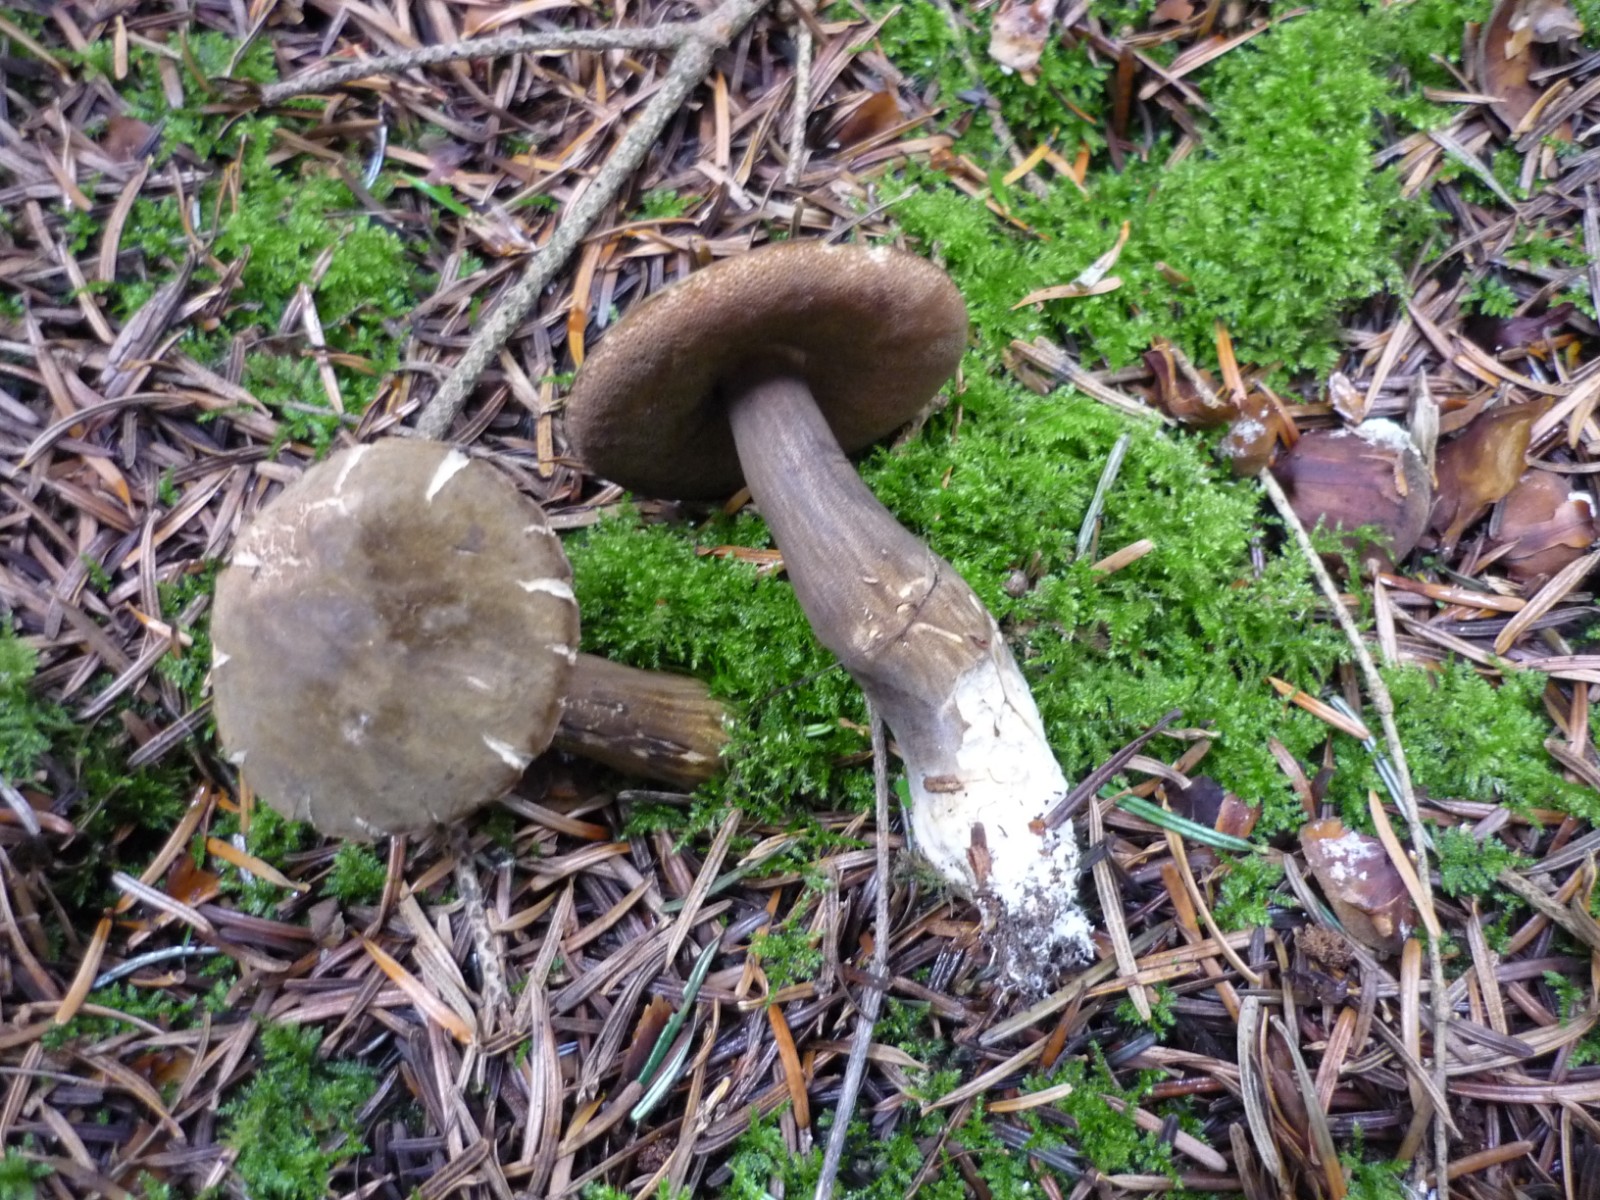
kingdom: Fungi
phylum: Basidiomycota
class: Agaricomycetes
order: Boletales
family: Boletaceae
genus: Porphyrellus
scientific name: Porphyrellus porphyrosporus
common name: sodrørhat
